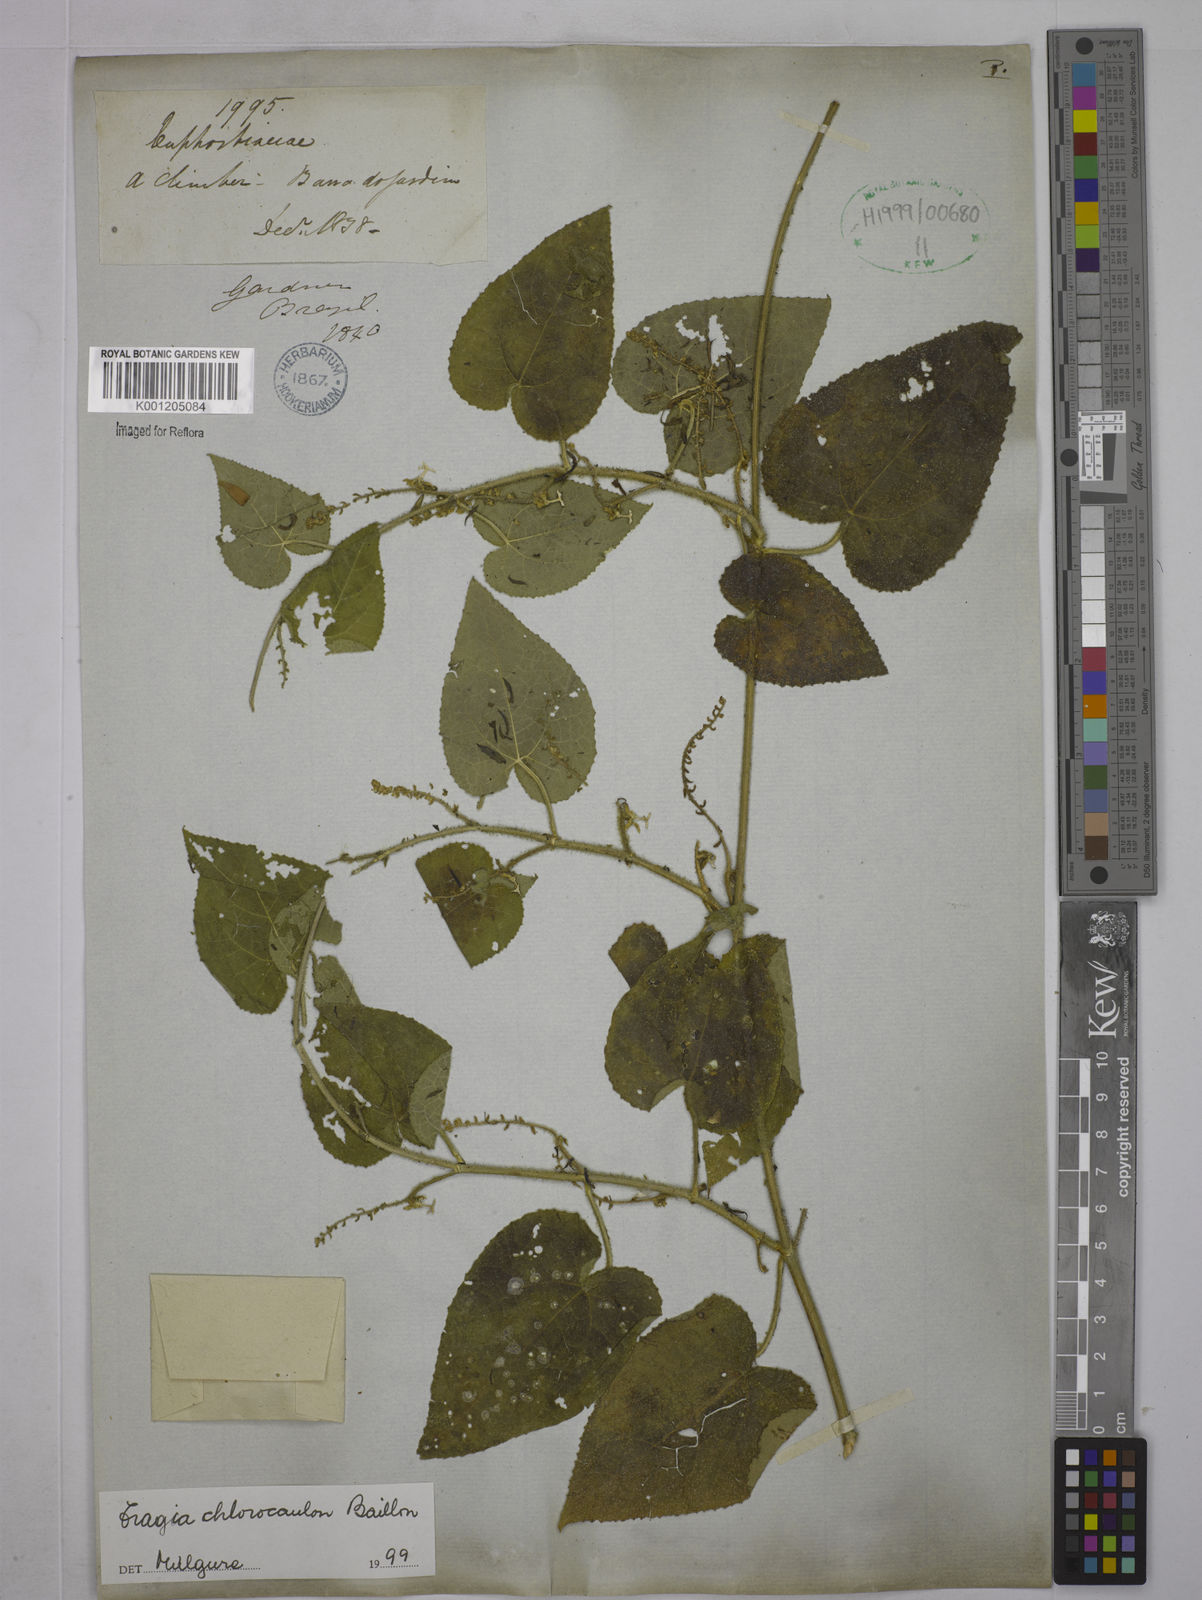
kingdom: Plantae
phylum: Tracheophyta
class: Magnoliopsida
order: Malpighiales
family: Euphorbiaceae
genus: Tragia
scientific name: Tragia chlorocaulon
